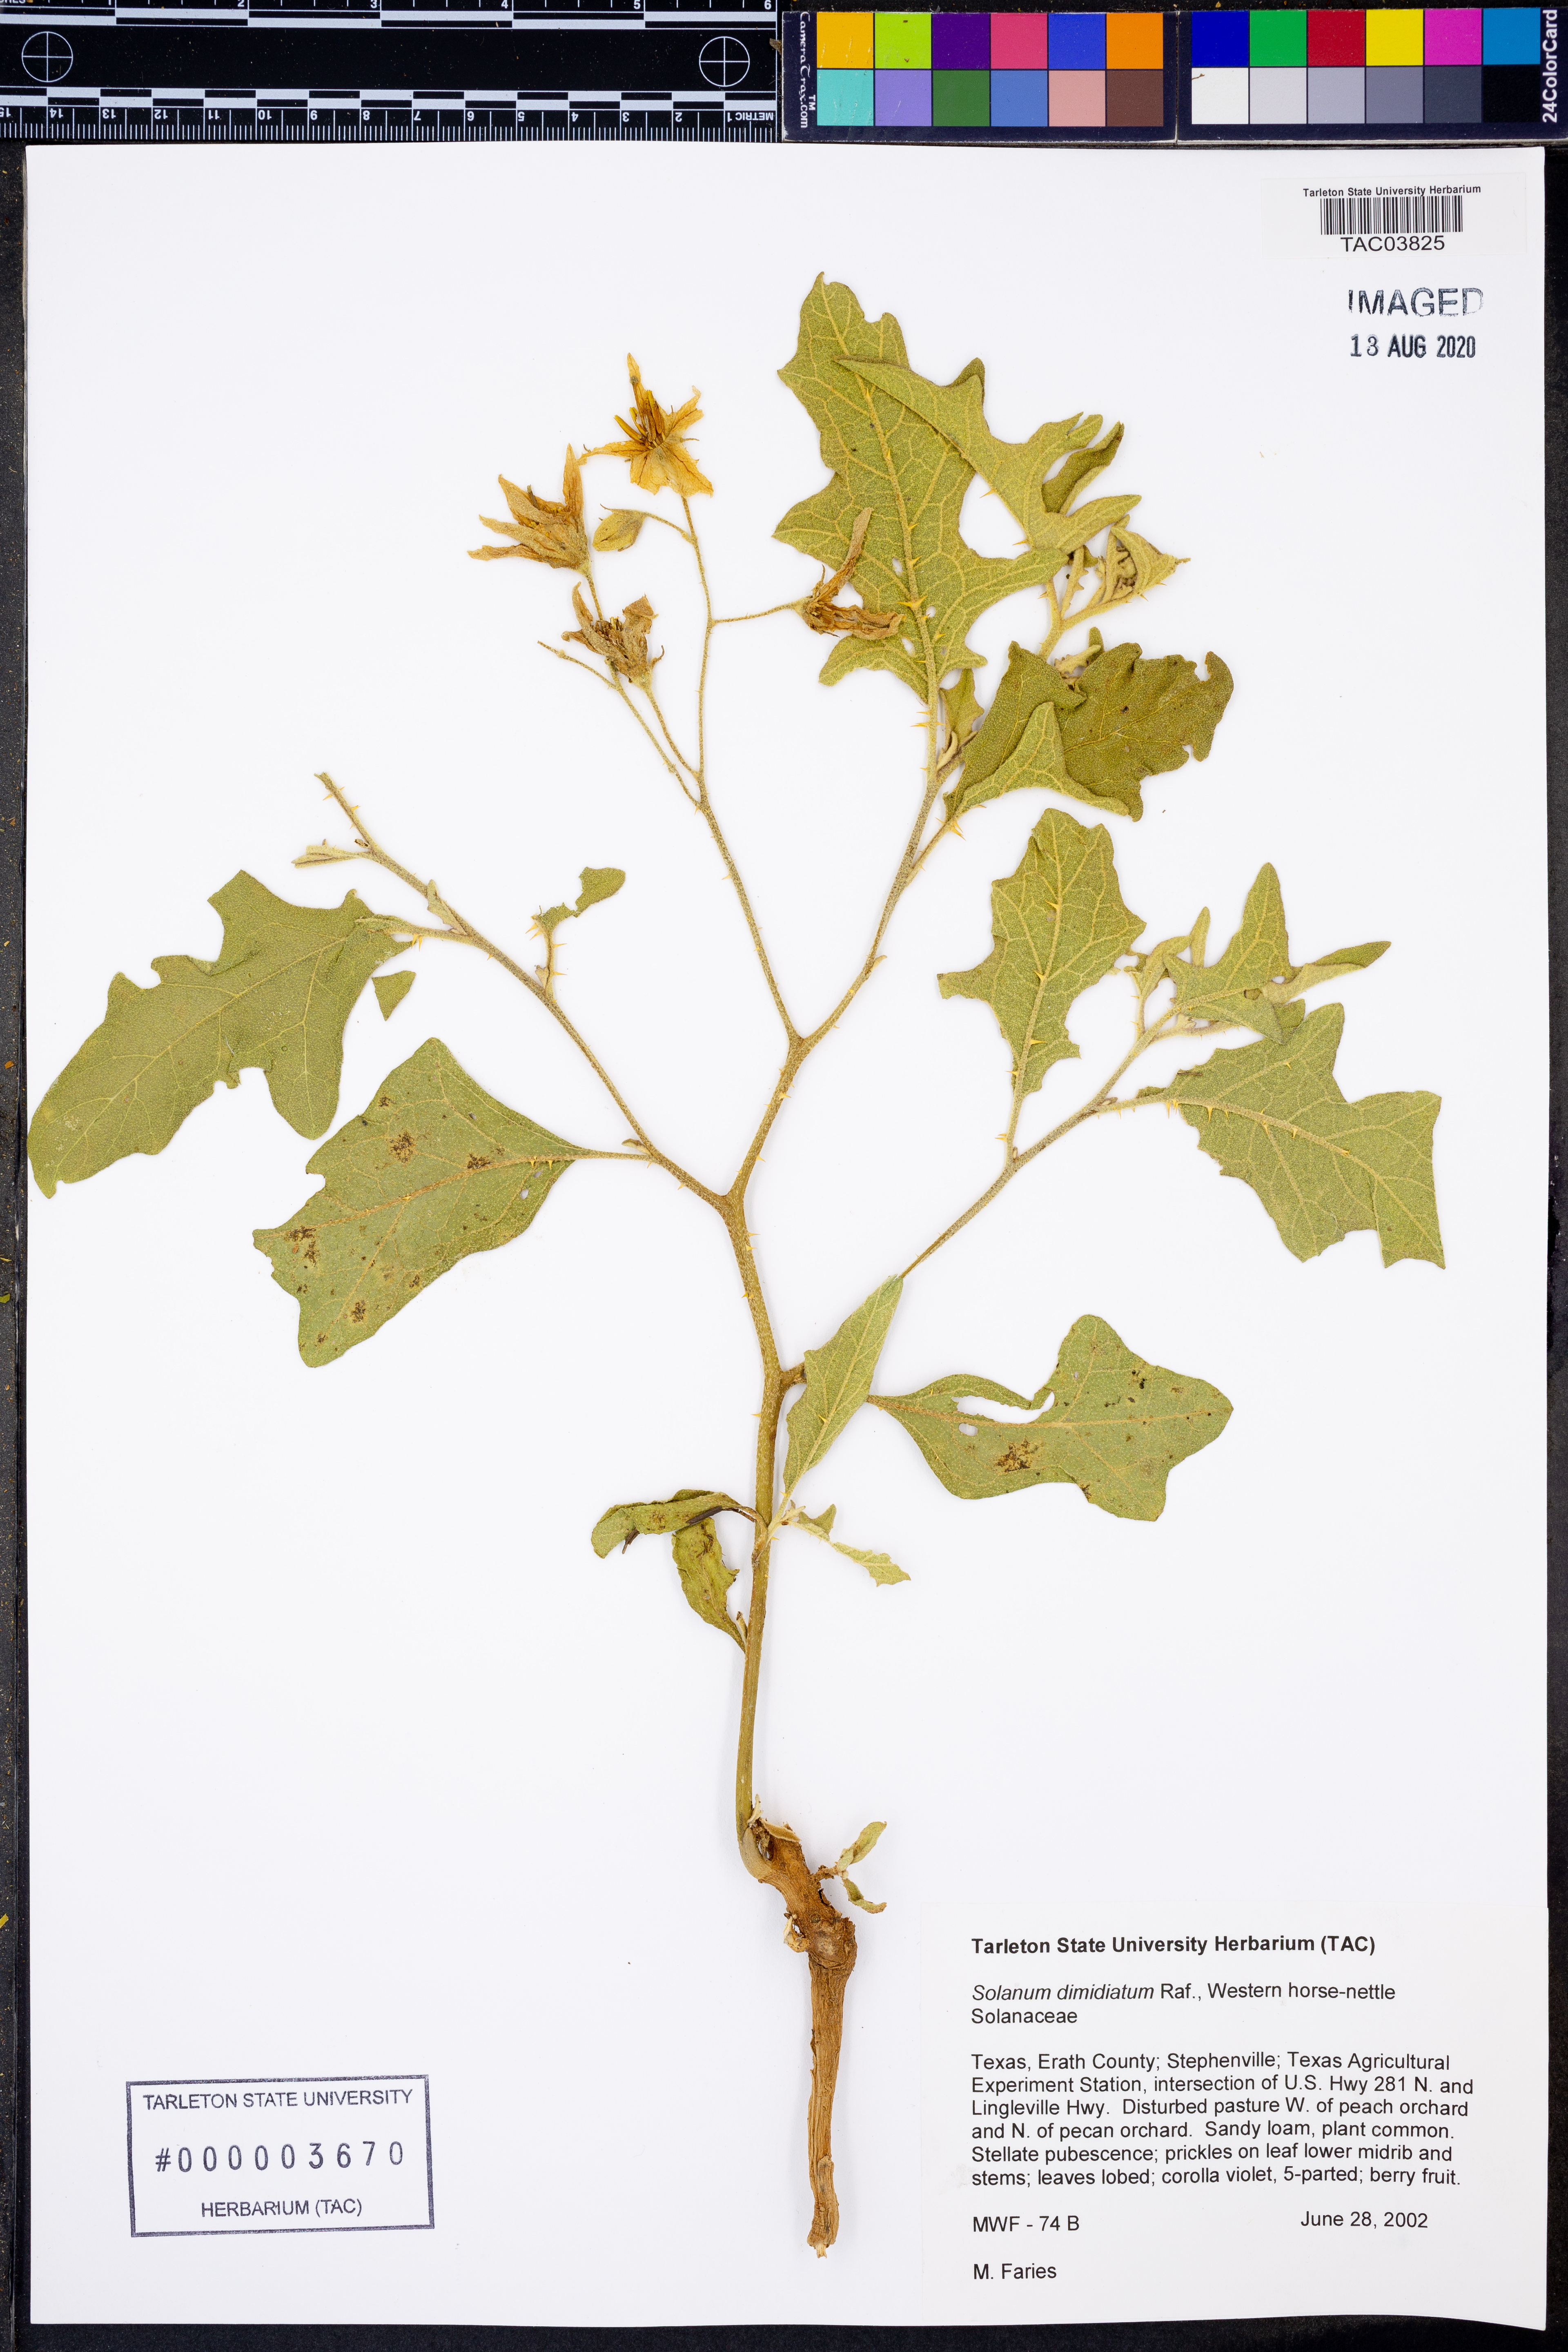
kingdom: Plantae
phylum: Tracheophyta
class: Magnoliopsida
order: Solanales
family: Solanaceae
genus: Solanum
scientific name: Solanum dimidiatum
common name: Carolina horse-nettle
